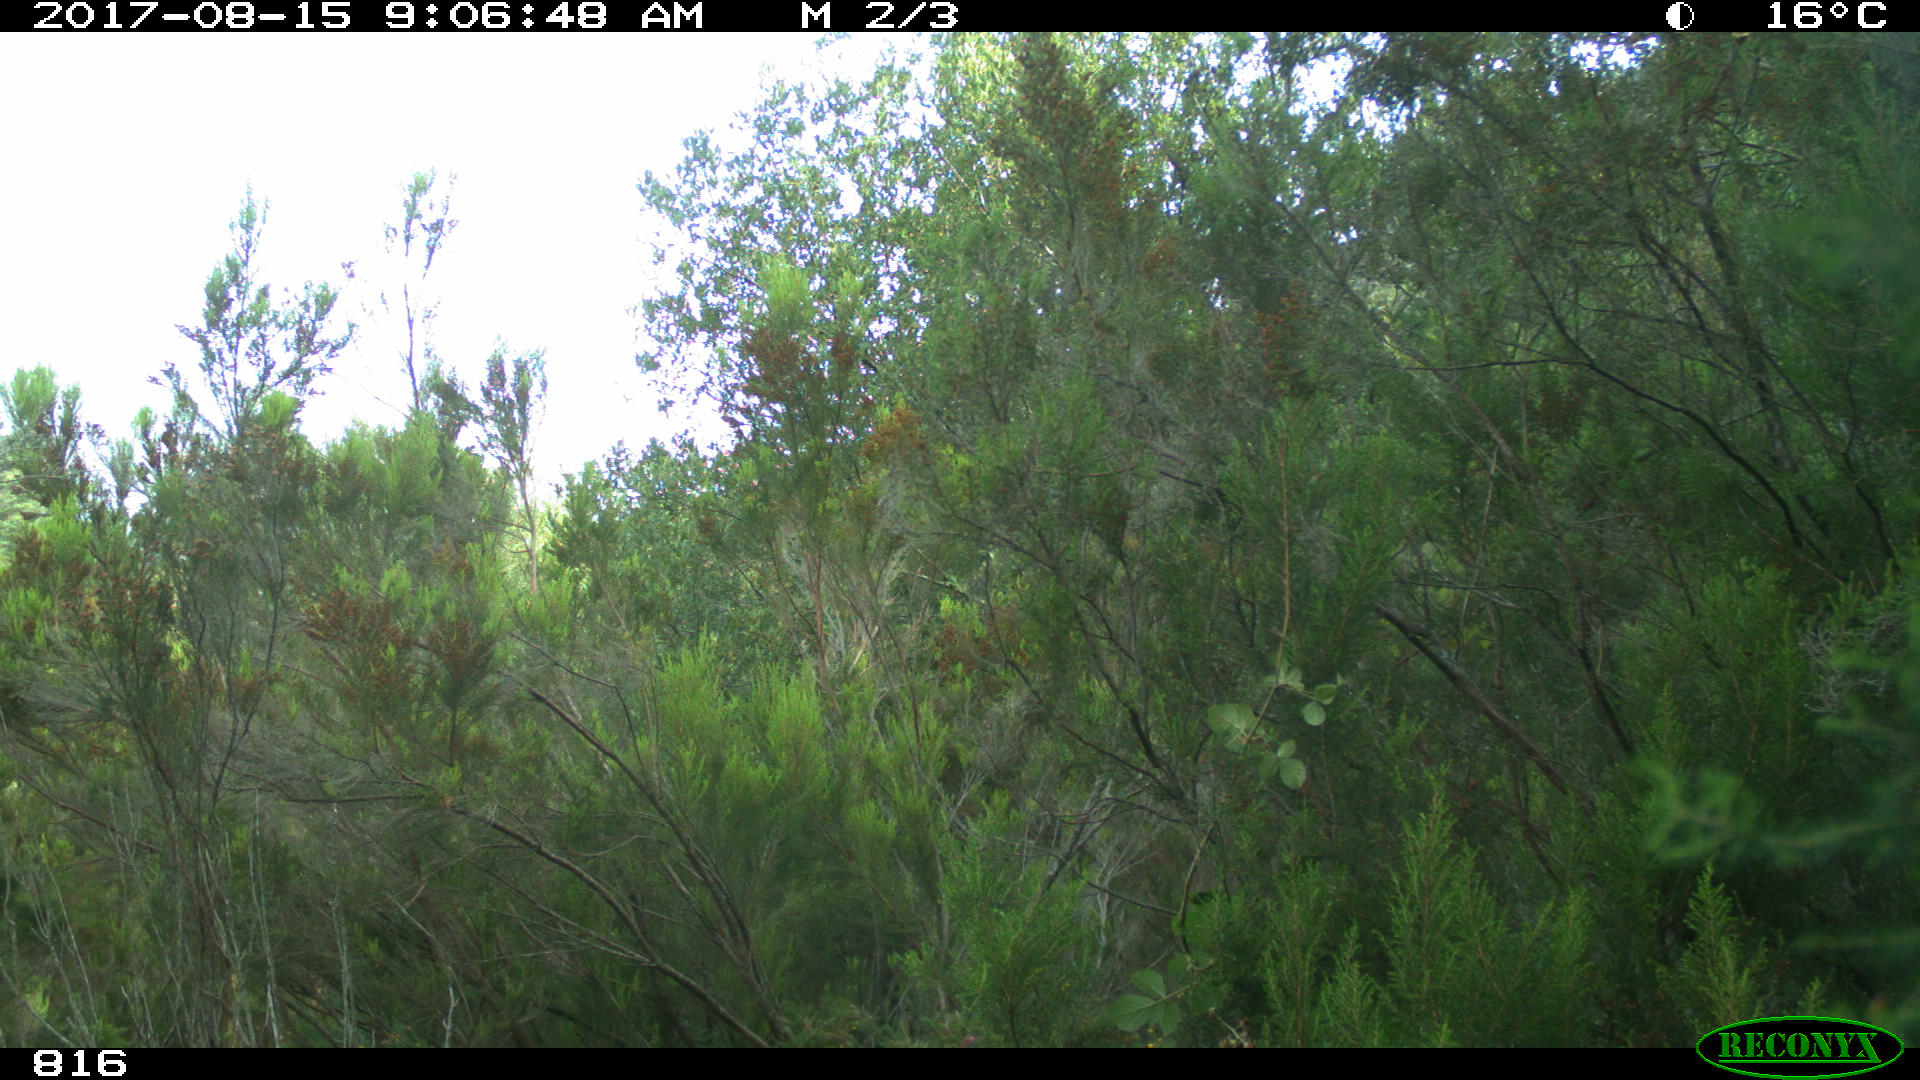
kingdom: Animalia
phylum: Chordata
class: Mammalia
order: Artiodactyla
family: Bovidae
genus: Bos
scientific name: Bos taurus
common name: Domesticated cattle
